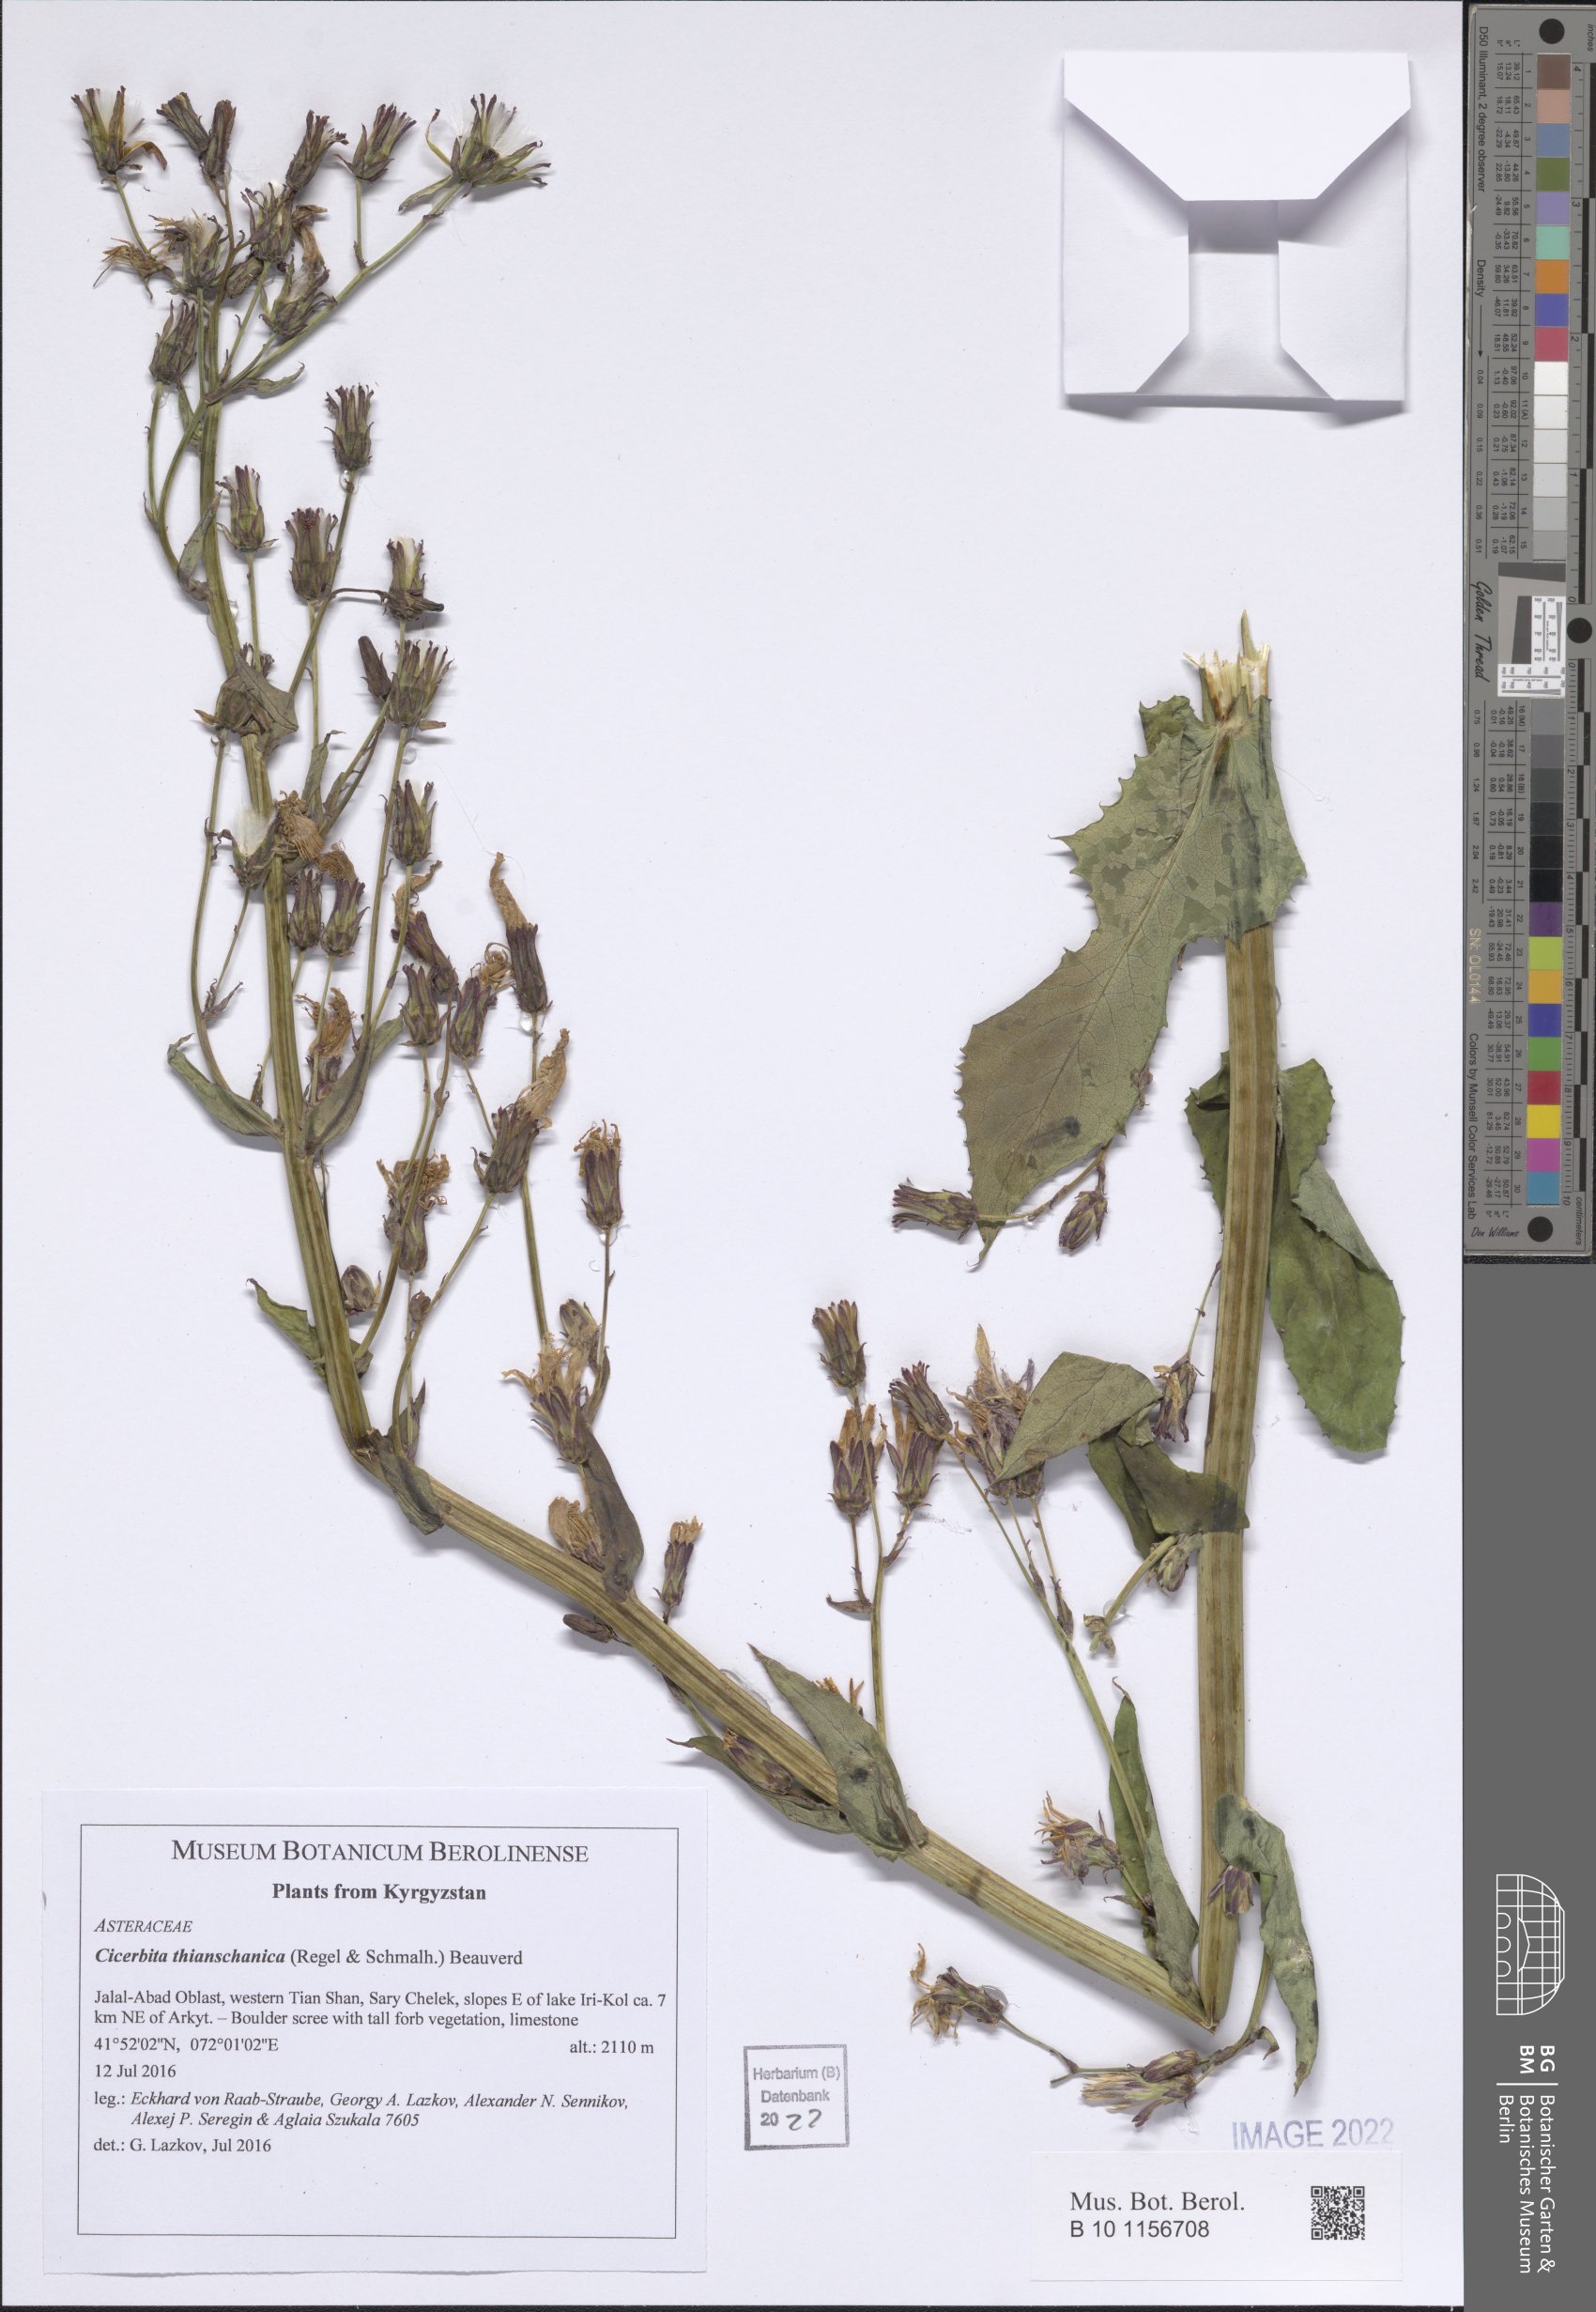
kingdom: Plantae
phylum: Tracheophyta
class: Magnoliopsida
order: Asterales
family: Asteraceae
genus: Cicerbita
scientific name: Cicerbita thianschanica
